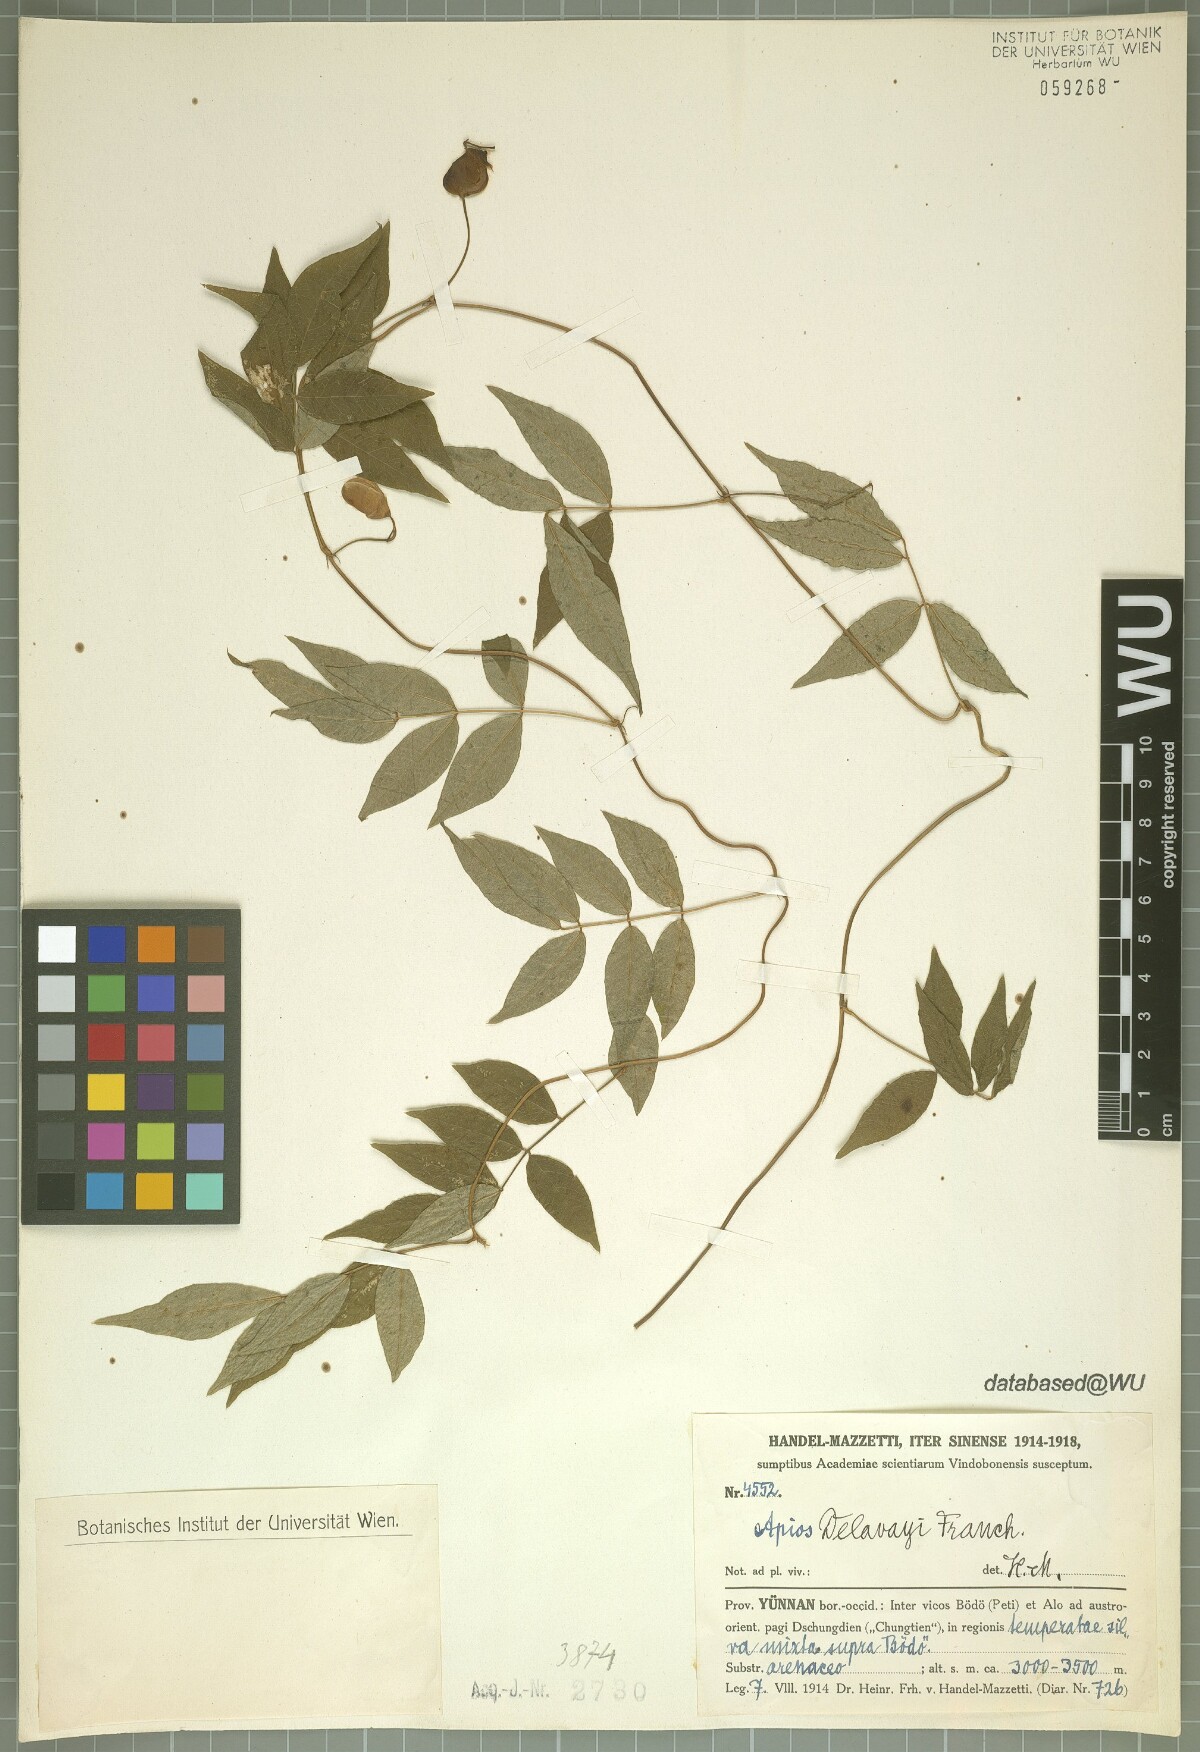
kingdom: Plantae
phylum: Tracheophyta
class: Magnoliopsida
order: Fabales
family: Fabaceae
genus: Apios
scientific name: Apios delavayi
